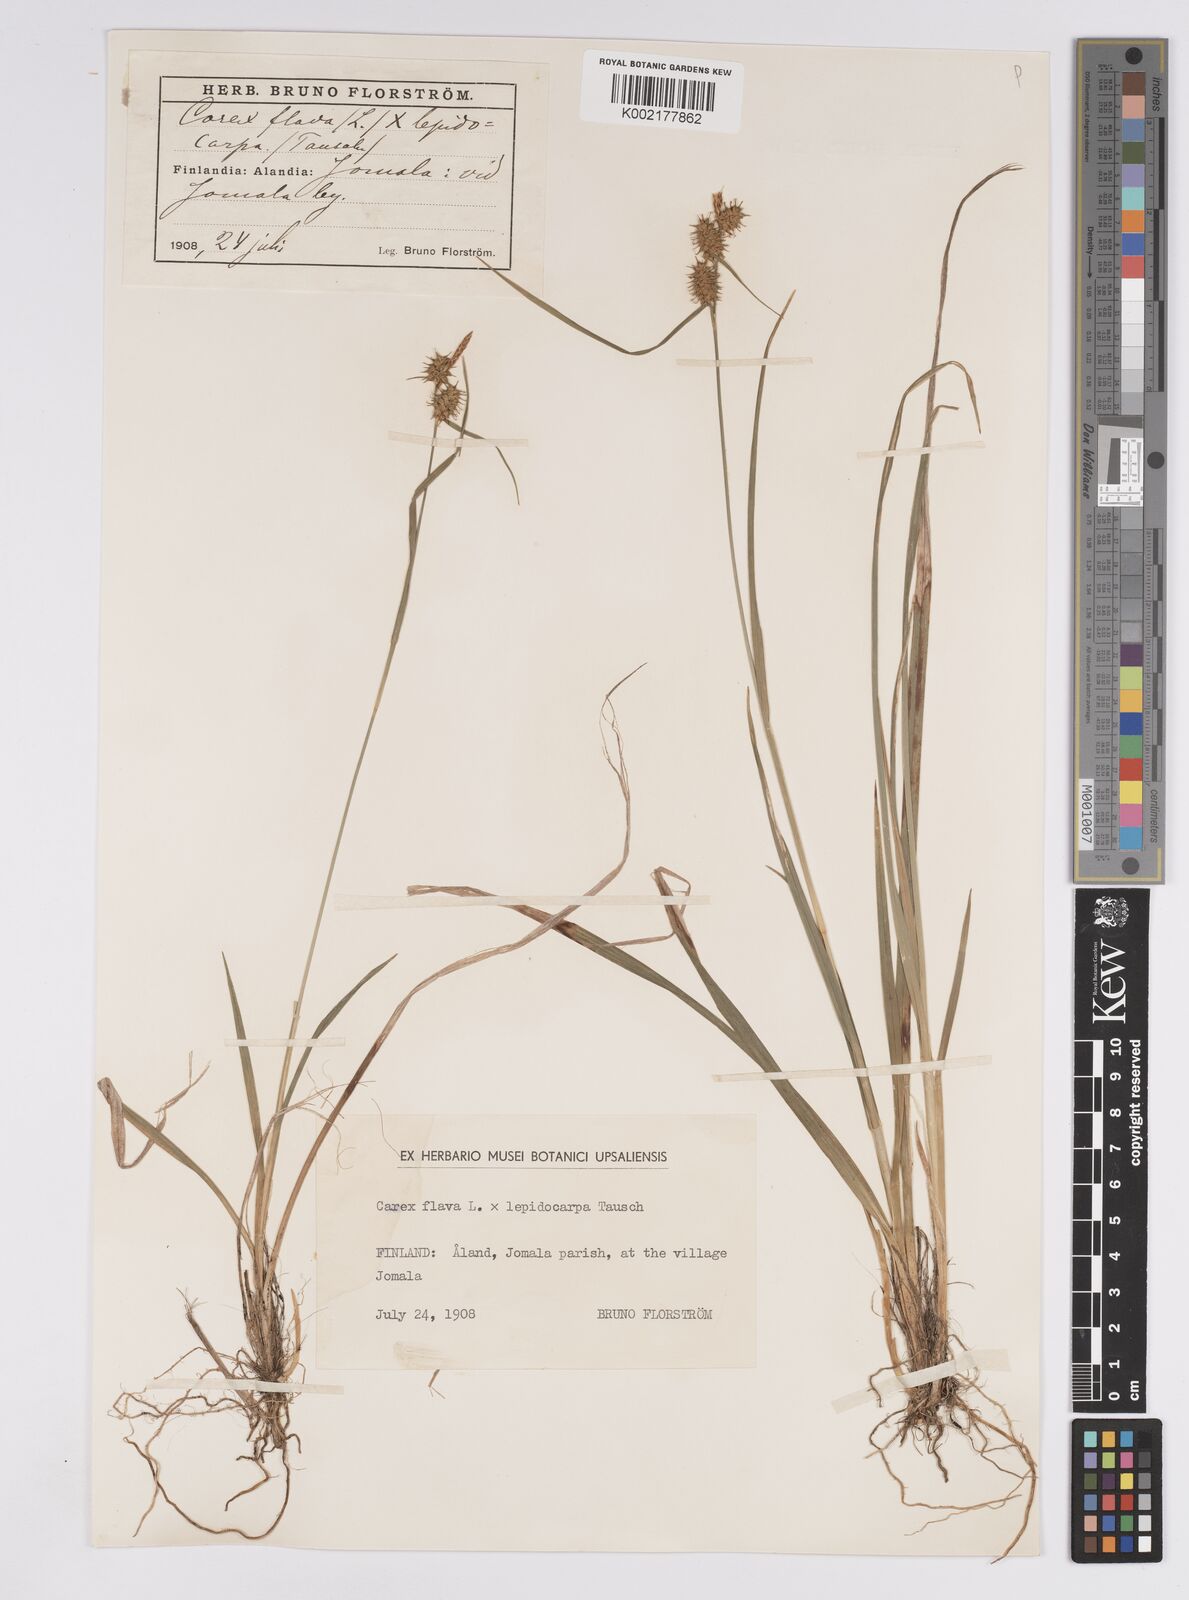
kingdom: Plantae
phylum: Tracheophyta
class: Liliopsida
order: Poales
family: Cyperaceae
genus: Carex
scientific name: Carex flava
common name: Large yellow-sedge
